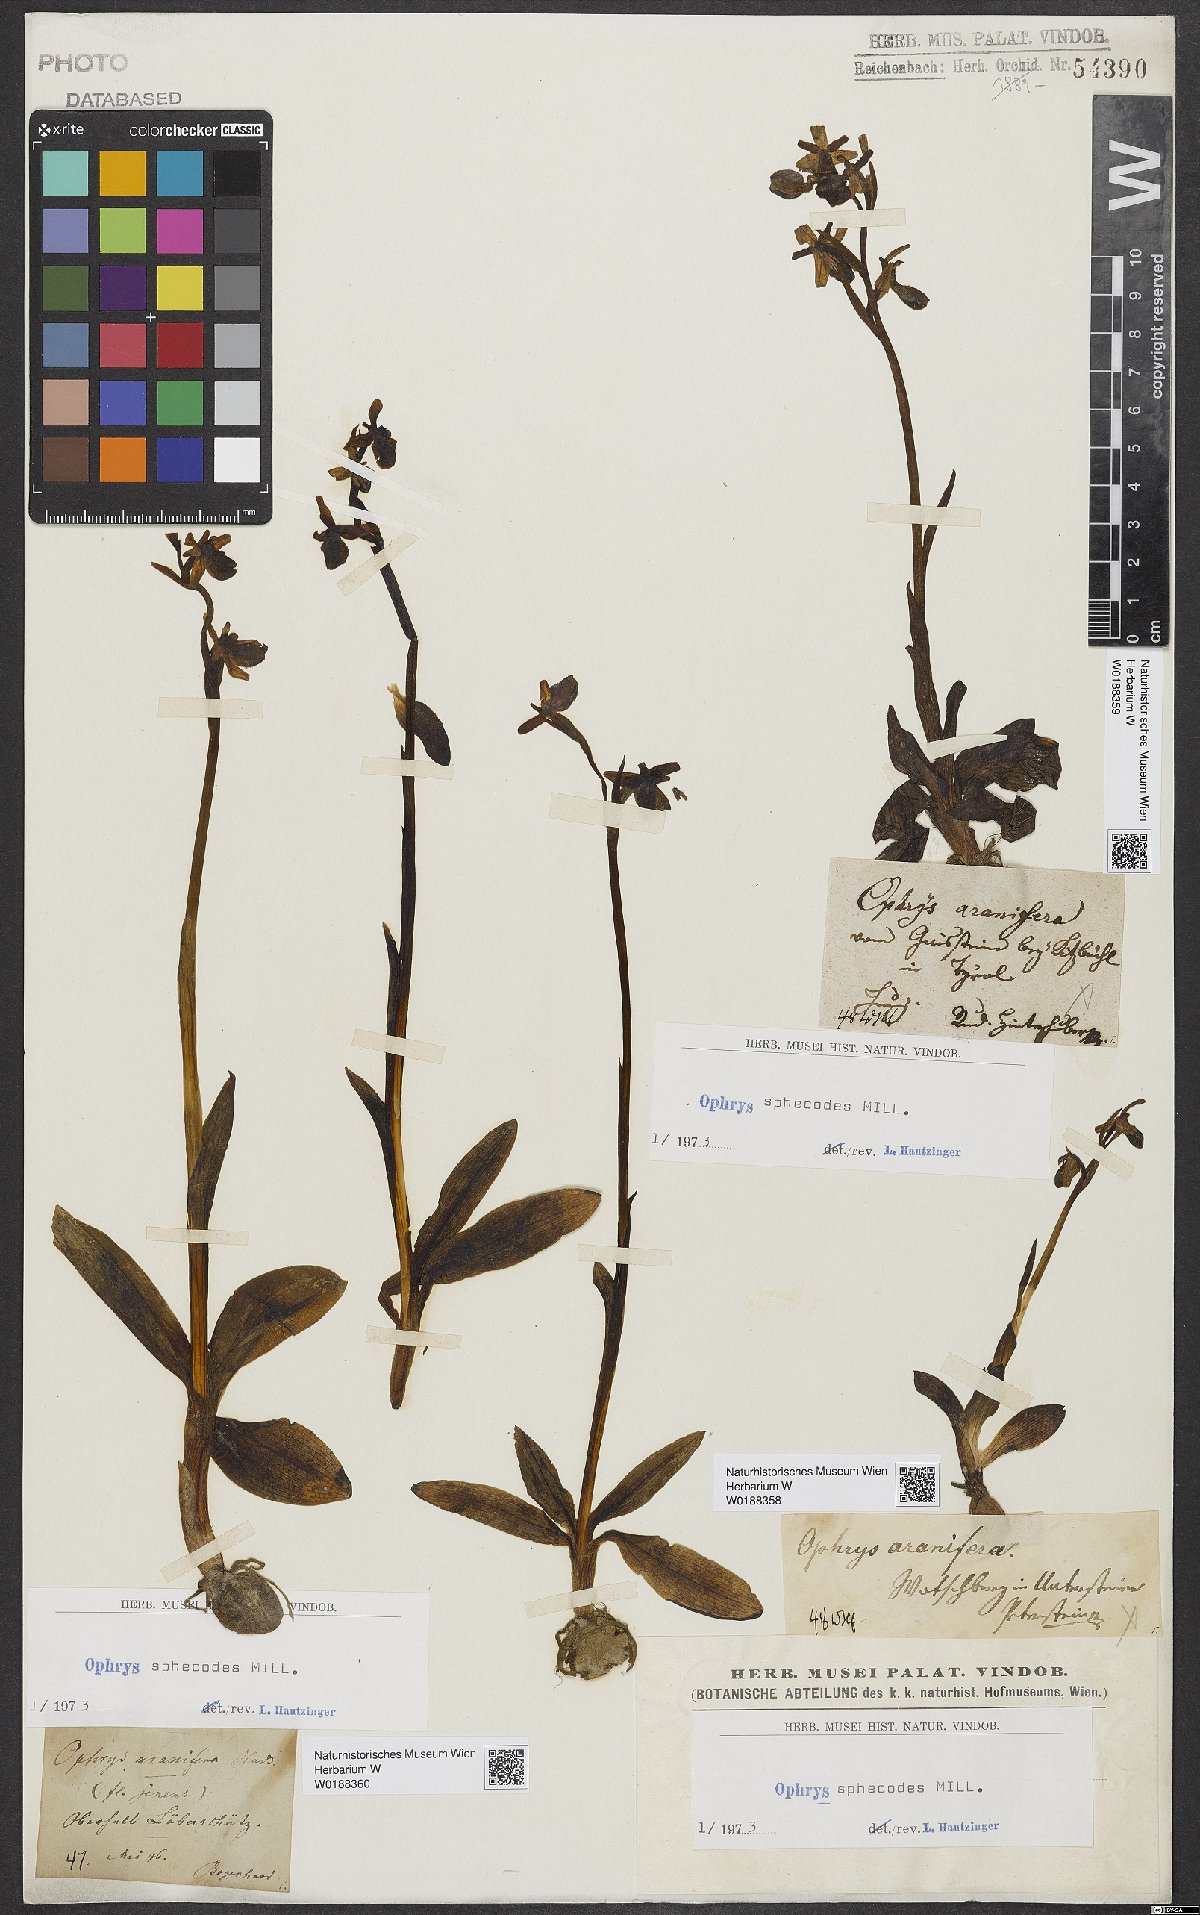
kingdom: Plantae
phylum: Tracheophyta
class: Liliopsida
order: Asparagales
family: Orchidaceae
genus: Ophrys
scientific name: Ophrys sphegodes
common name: Early spider-orchid
